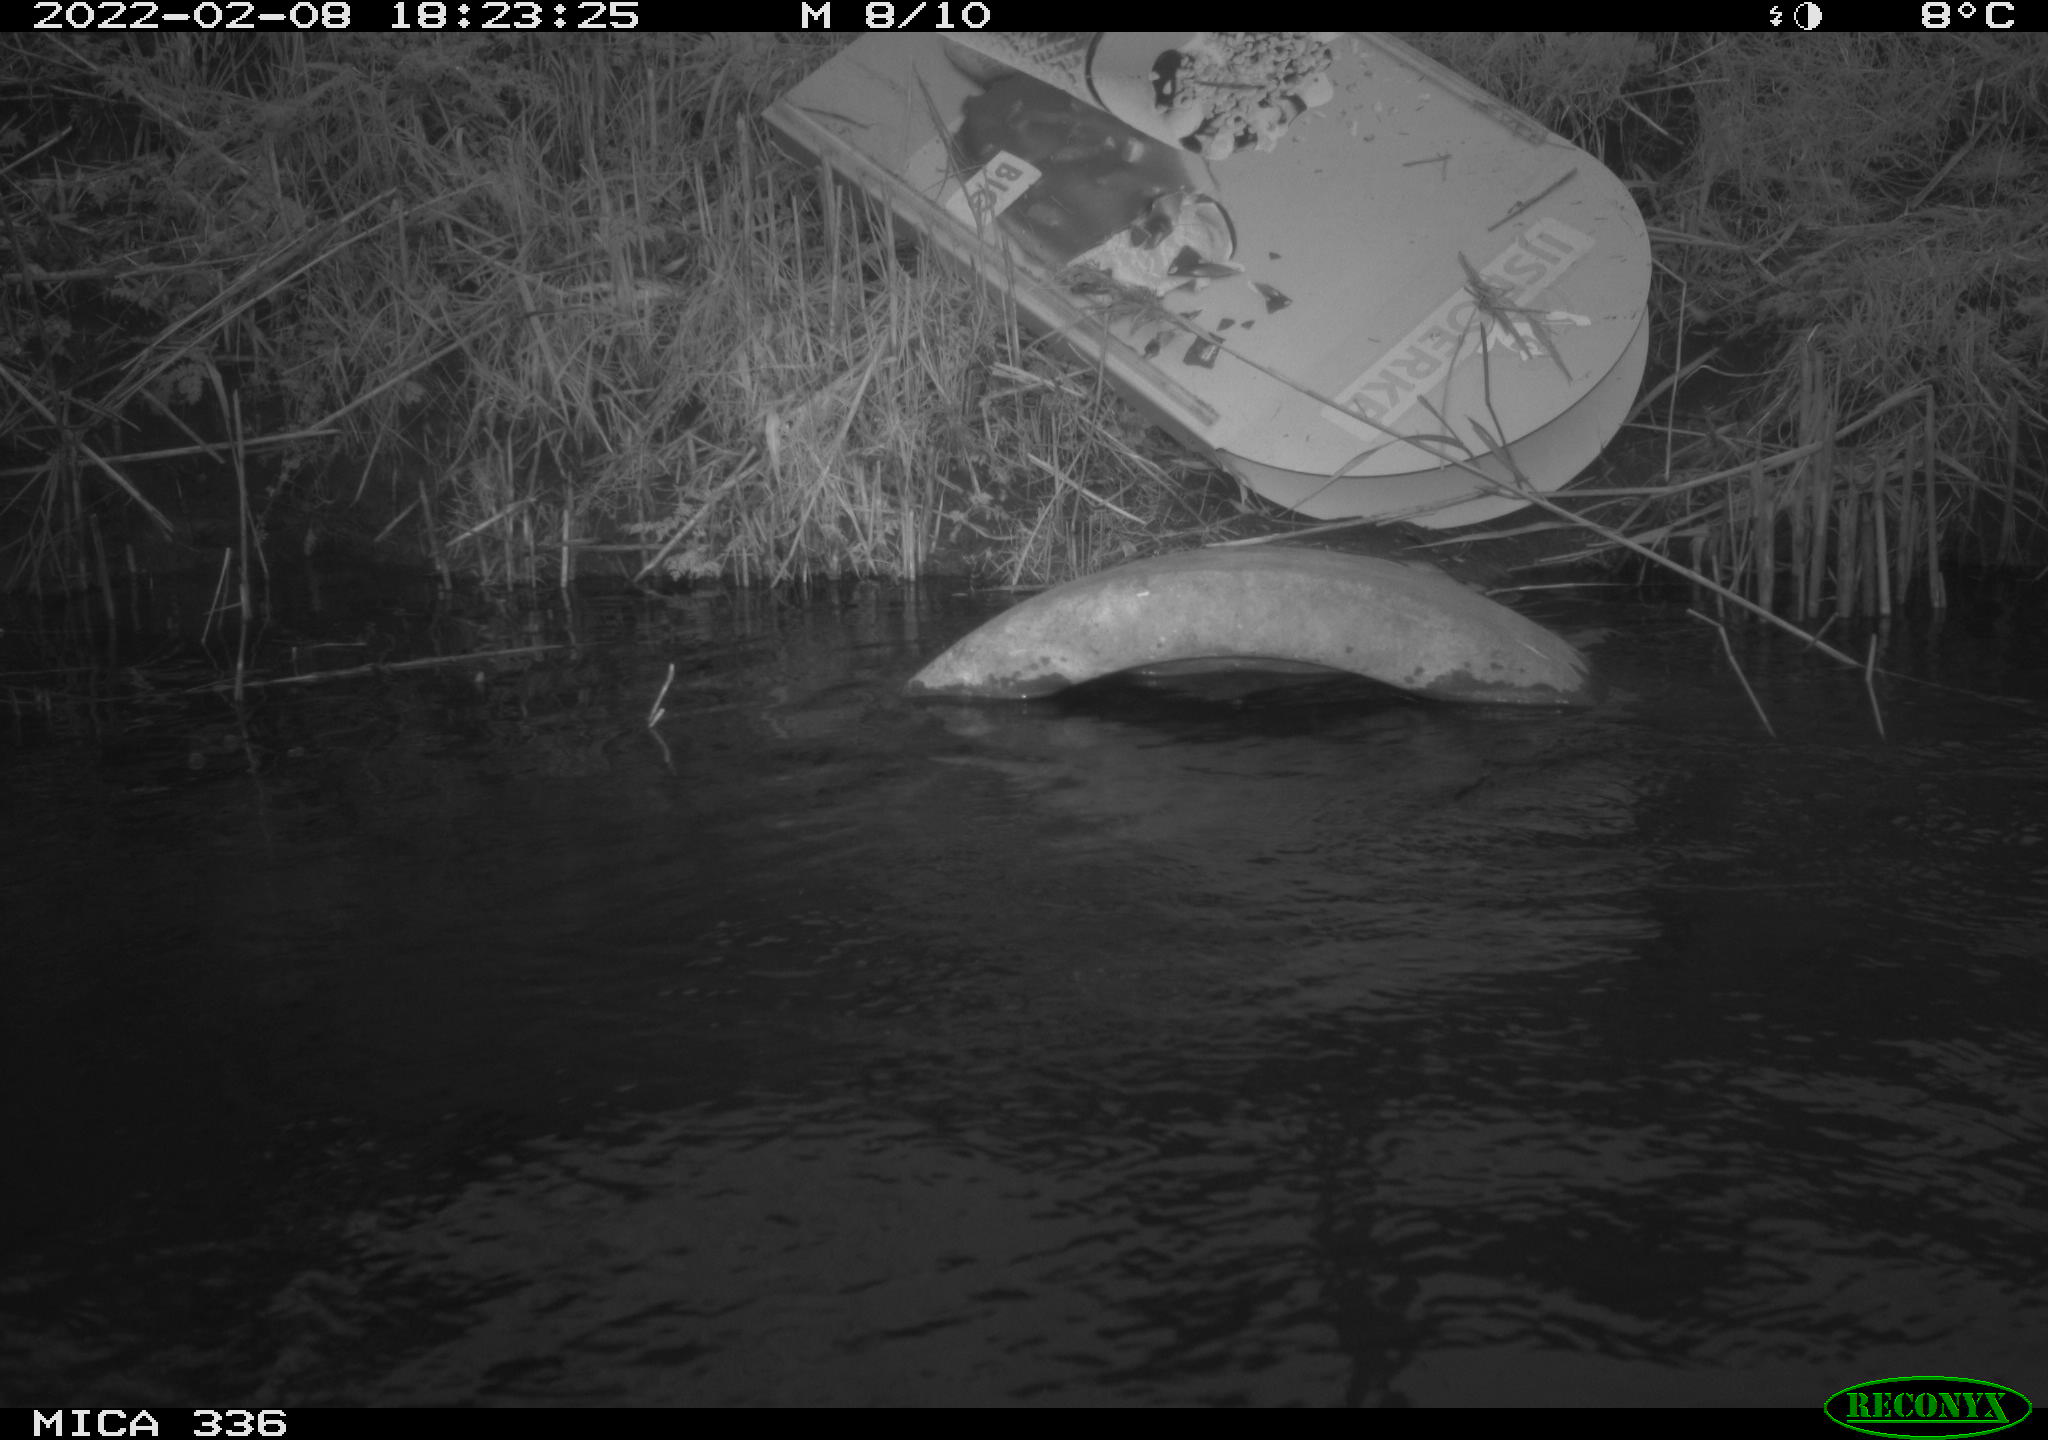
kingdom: Animalia
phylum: Chordata
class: Aves
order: Suliformes
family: Phalacrocoracidae
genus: Phalacrocorax
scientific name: Phalacrocorax carbo
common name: Great cormorant
